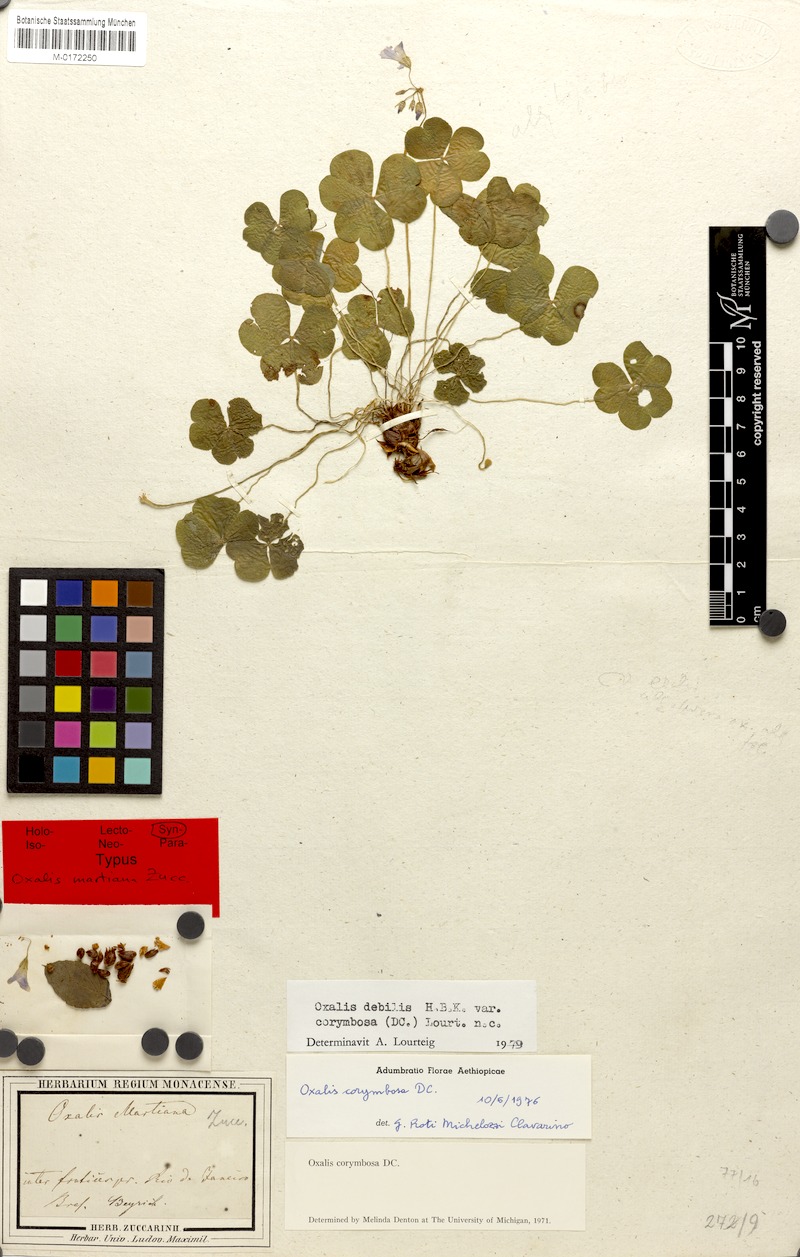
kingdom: Plantae
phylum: Tracheophyta
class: Magnoliopsida
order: Oxalidales
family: Oxalidaceae
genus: Oxalis
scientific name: Oxalis debilis
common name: Large-flowered pink-sorrel
